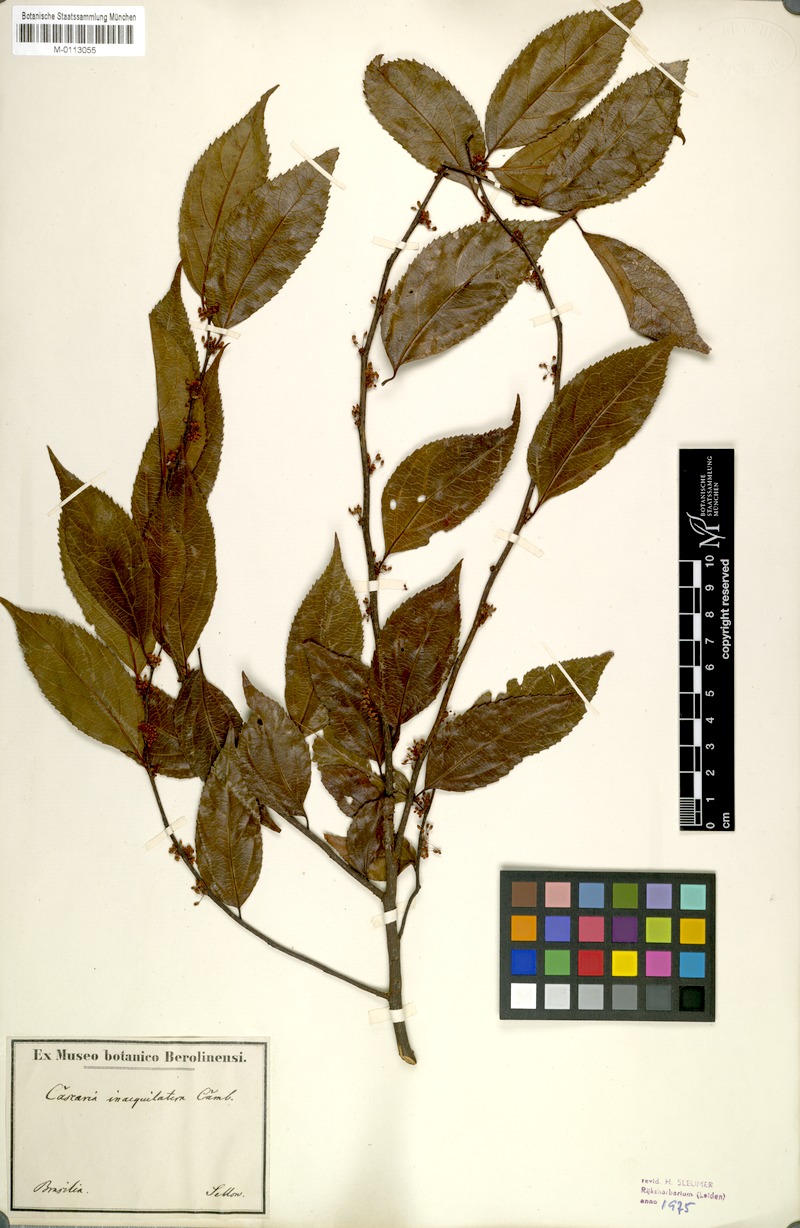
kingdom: Plantae
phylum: Tracheophyta
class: Magnoliopsida
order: Malpighiales
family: Salicaceae
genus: Casearia
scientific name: Casearia obliqua
